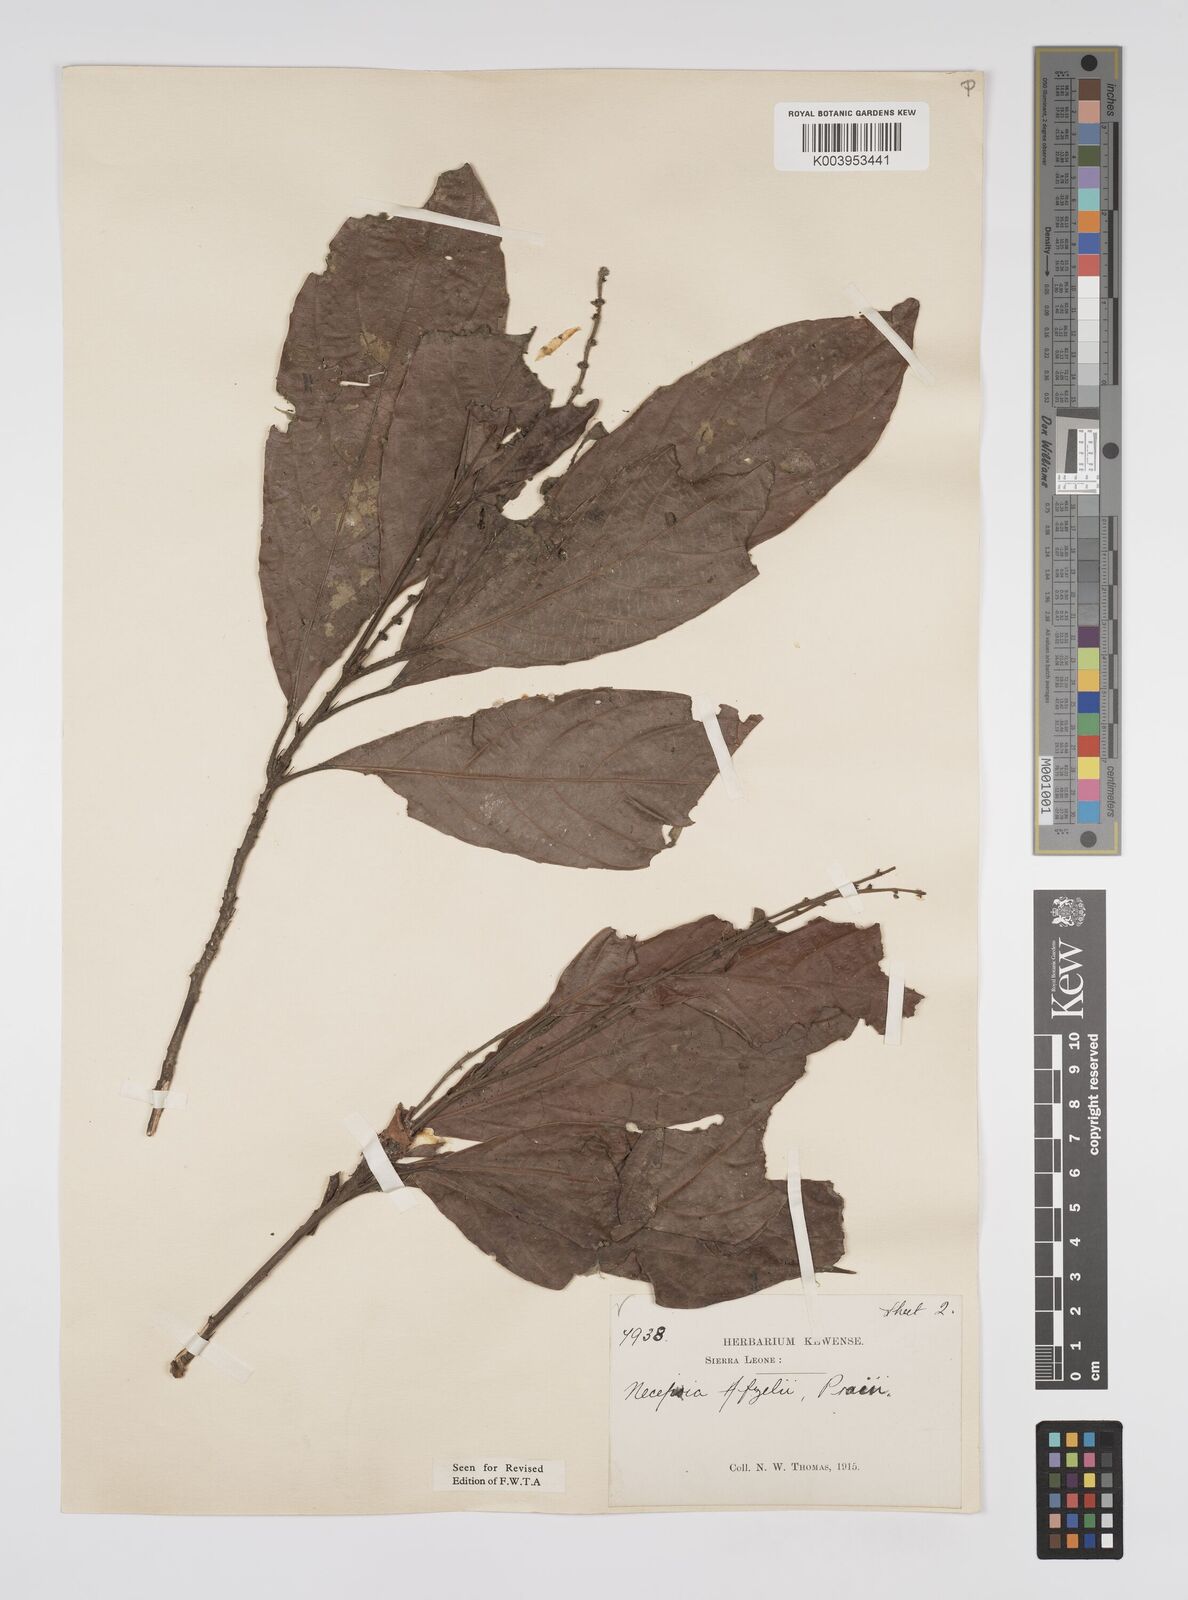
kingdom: Plantae
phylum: Tracheophyta
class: Magnoliopsida
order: Malpighiales
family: Euphorbiaceae
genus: Necepsia
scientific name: Necepsia afzelii
